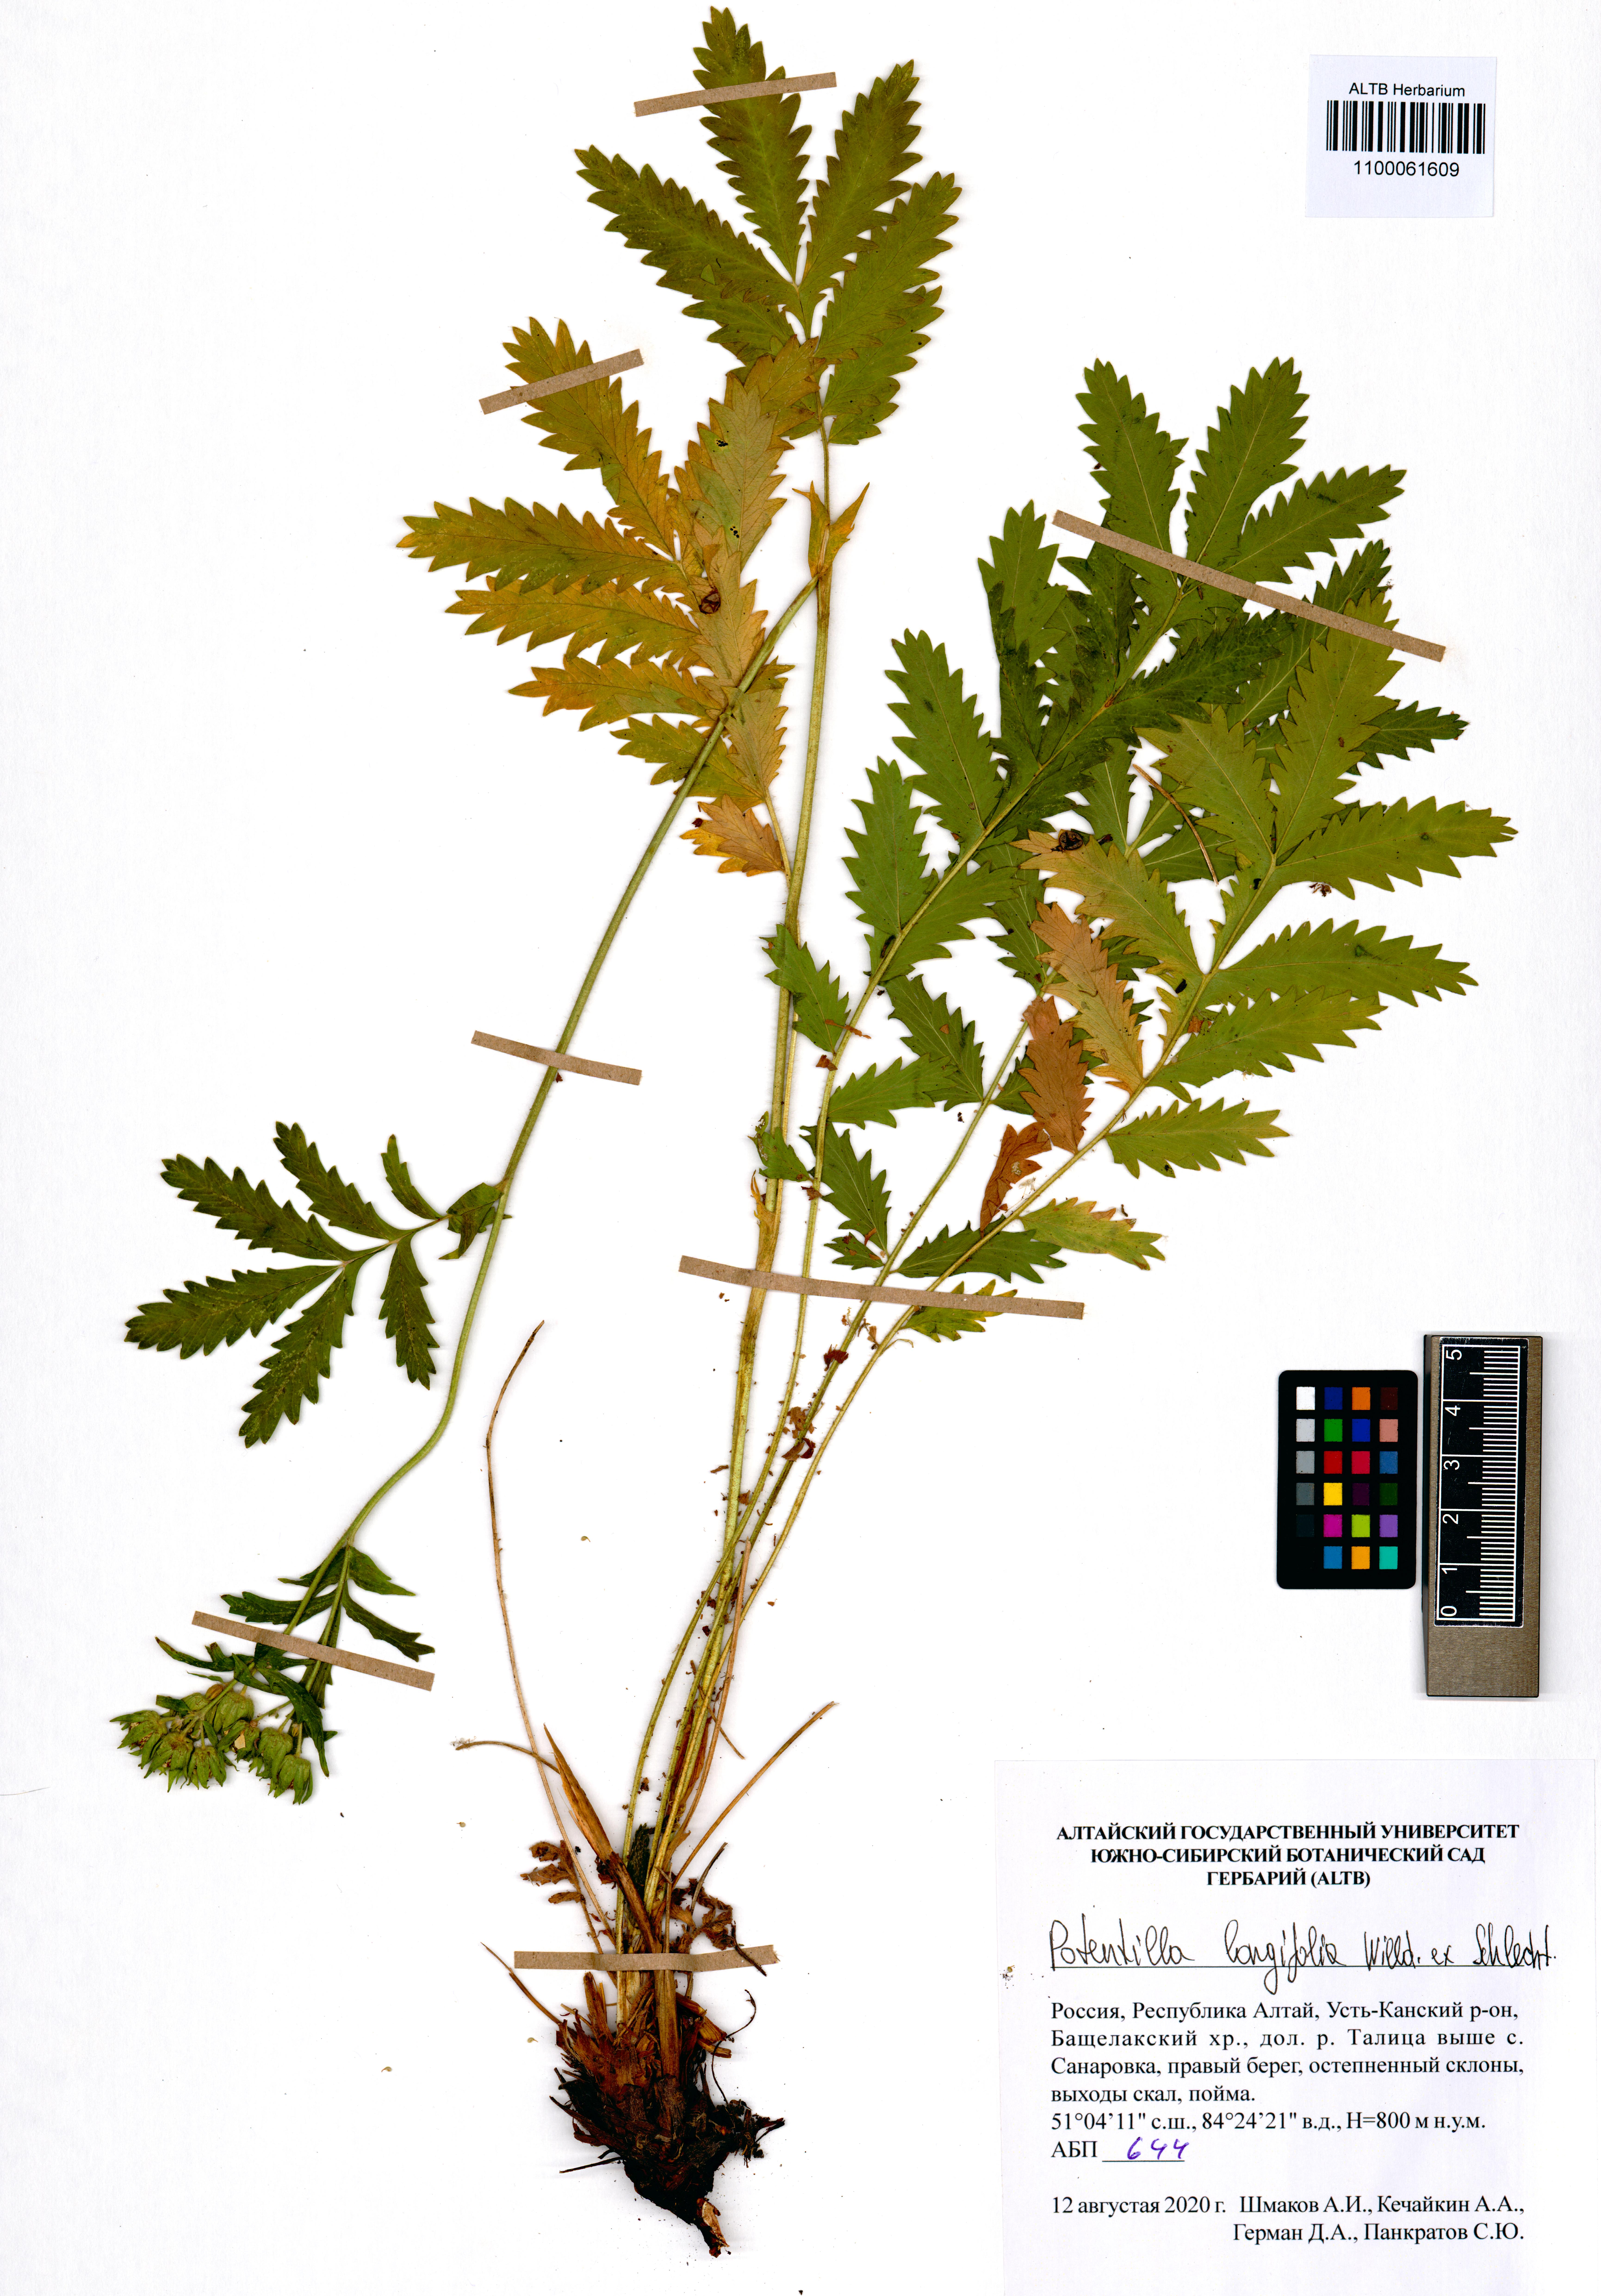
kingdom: Plantae
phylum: Tracheophyta
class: Magnoliopsida
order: Rosales
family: Rosaceae
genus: Potentilla
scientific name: Potentilla longifolia
